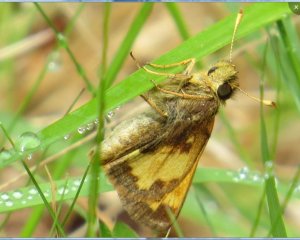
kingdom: Animalia
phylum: Arthropoda
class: Insecta
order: Lepidoptera
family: Hesperiidae
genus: Lon
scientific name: Lon hobomok
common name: Hobomok Skipper
